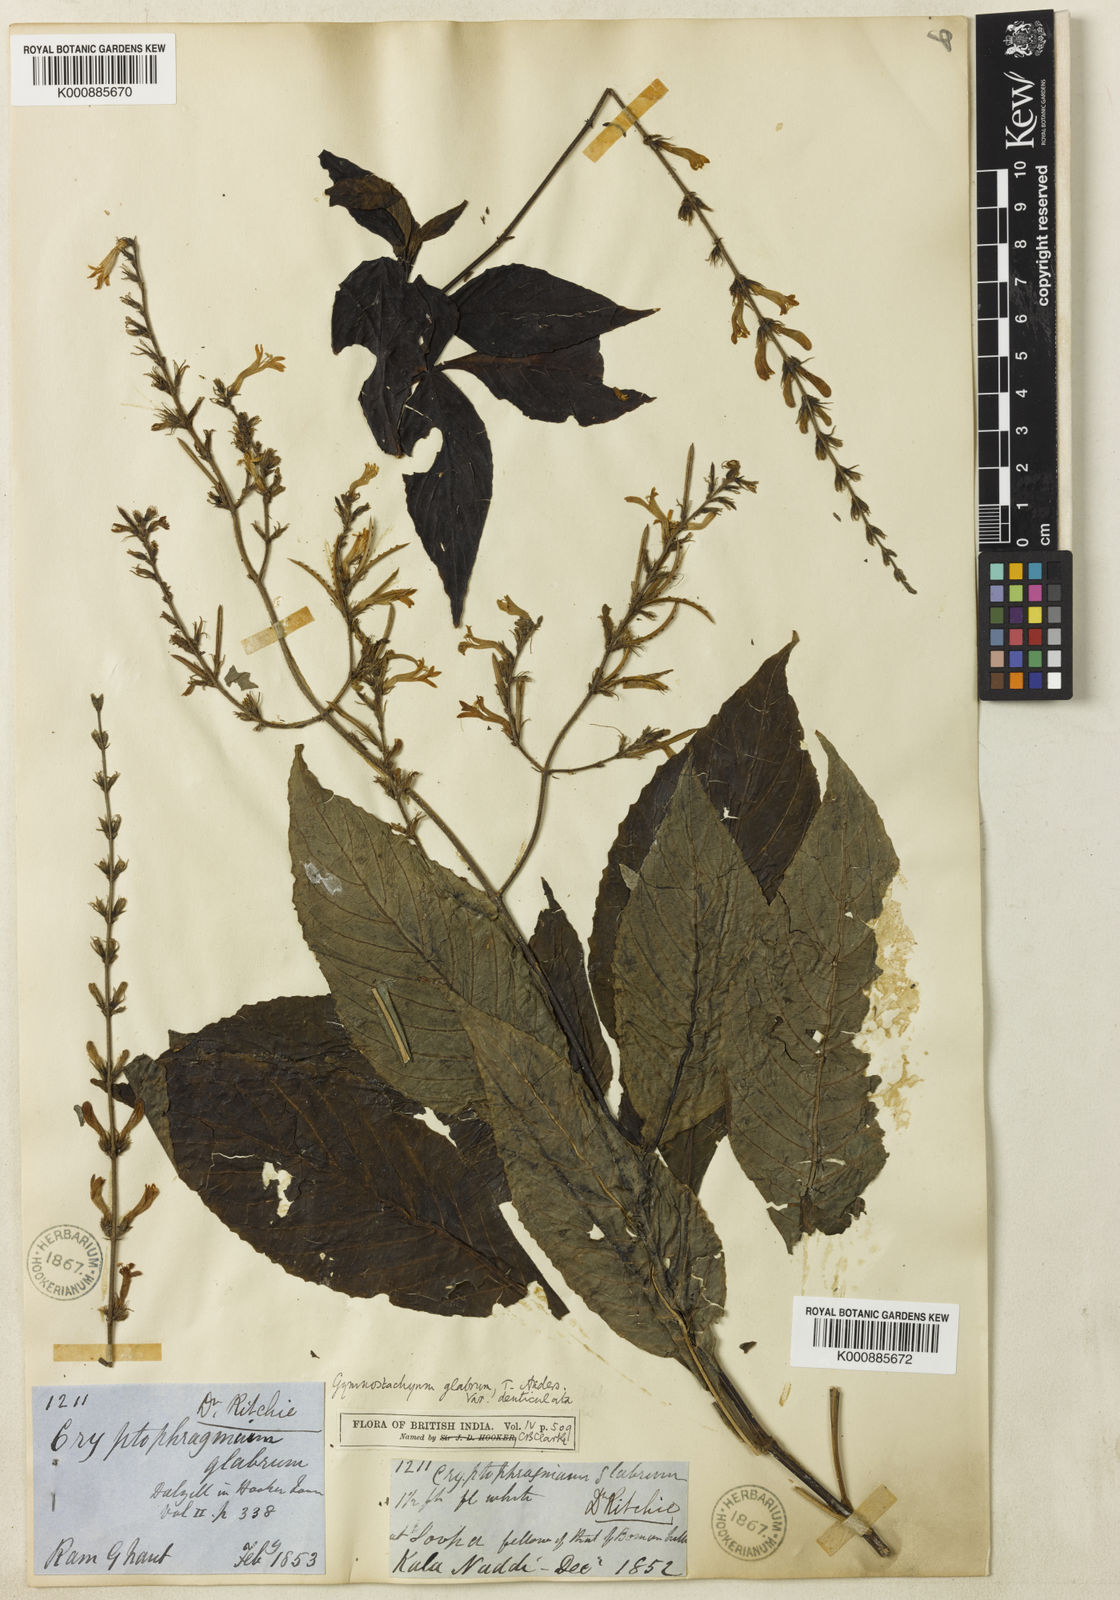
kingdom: Plantae
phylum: Tracheophyta
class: Magnoliopsida
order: Lamiales
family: Acanthaceae
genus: Gymnostachyum
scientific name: Gymnostachyum glabrum
